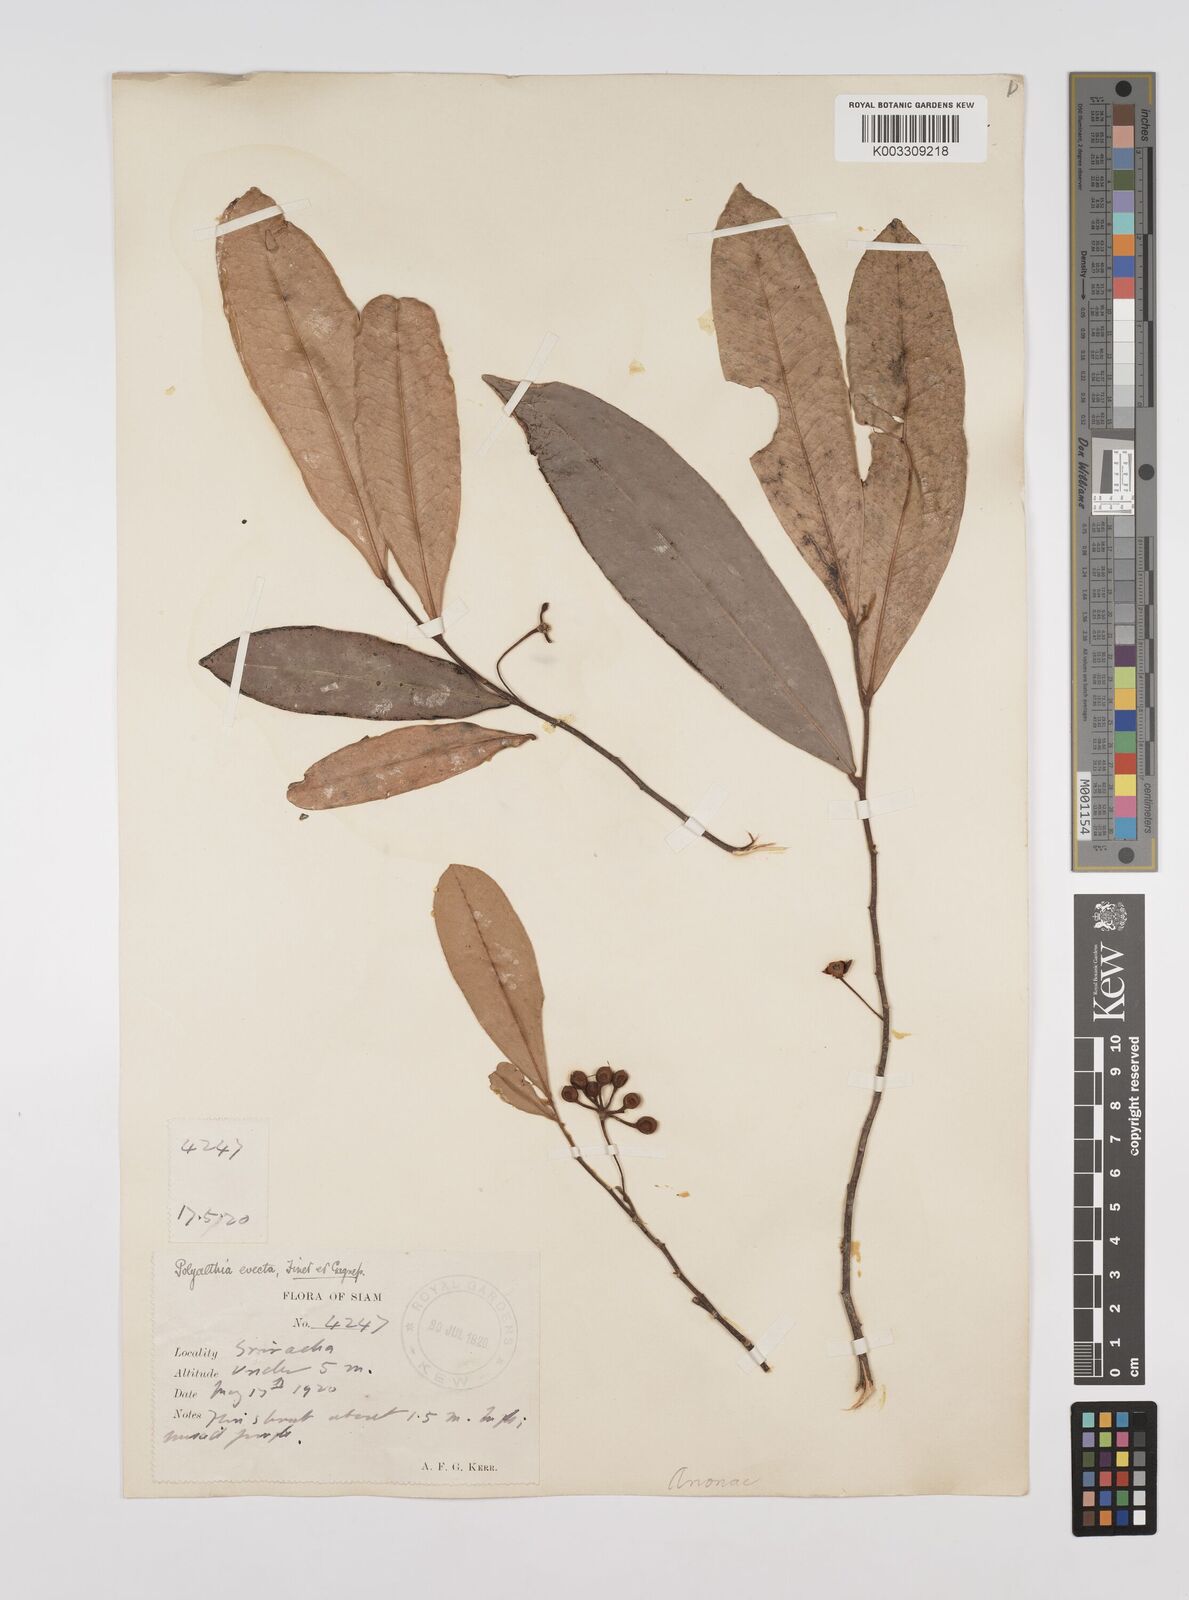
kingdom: Plantae
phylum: Tracheophyta
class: Magnoliopsida
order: Magnoliales
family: Annonaceae
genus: Polyalthia
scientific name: Polyalthia evecta
